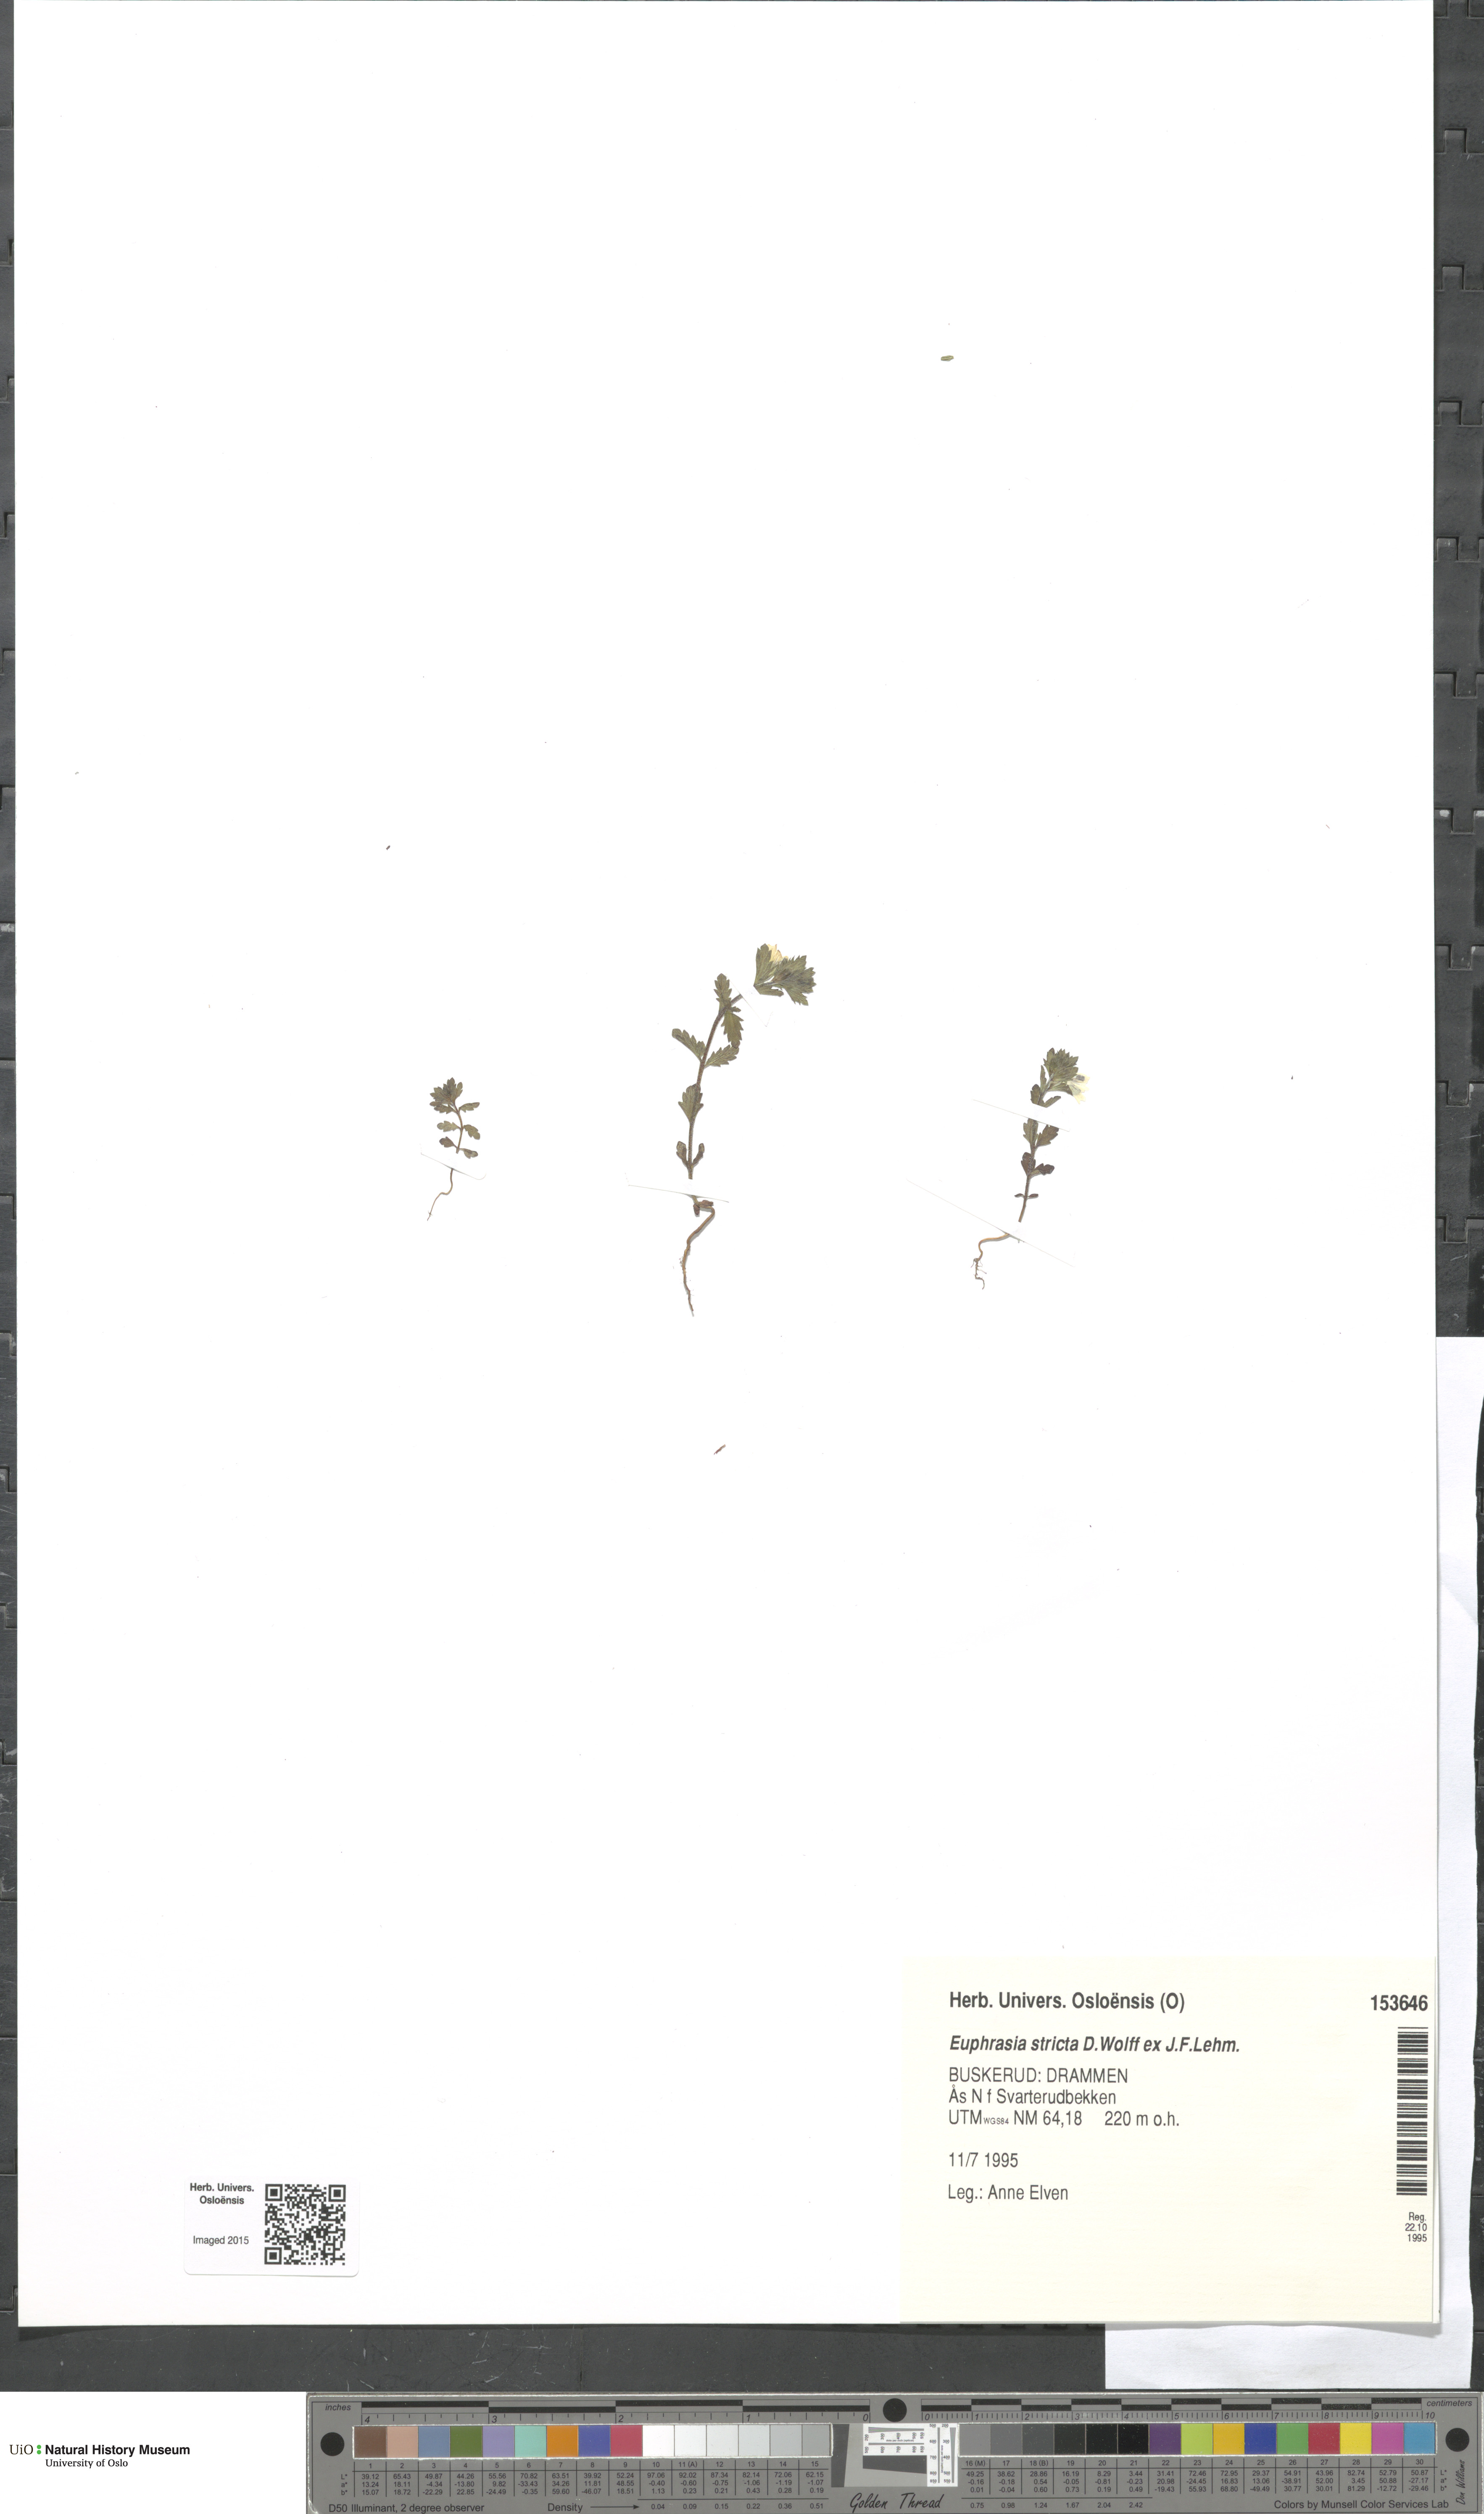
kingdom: Plantae
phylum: Tracheophyta
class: Magnoliopsida
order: Lamiales
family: Orobanchaceae
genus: Euphrasia
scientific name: Euphrasia stricta
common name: Drug eyebright
